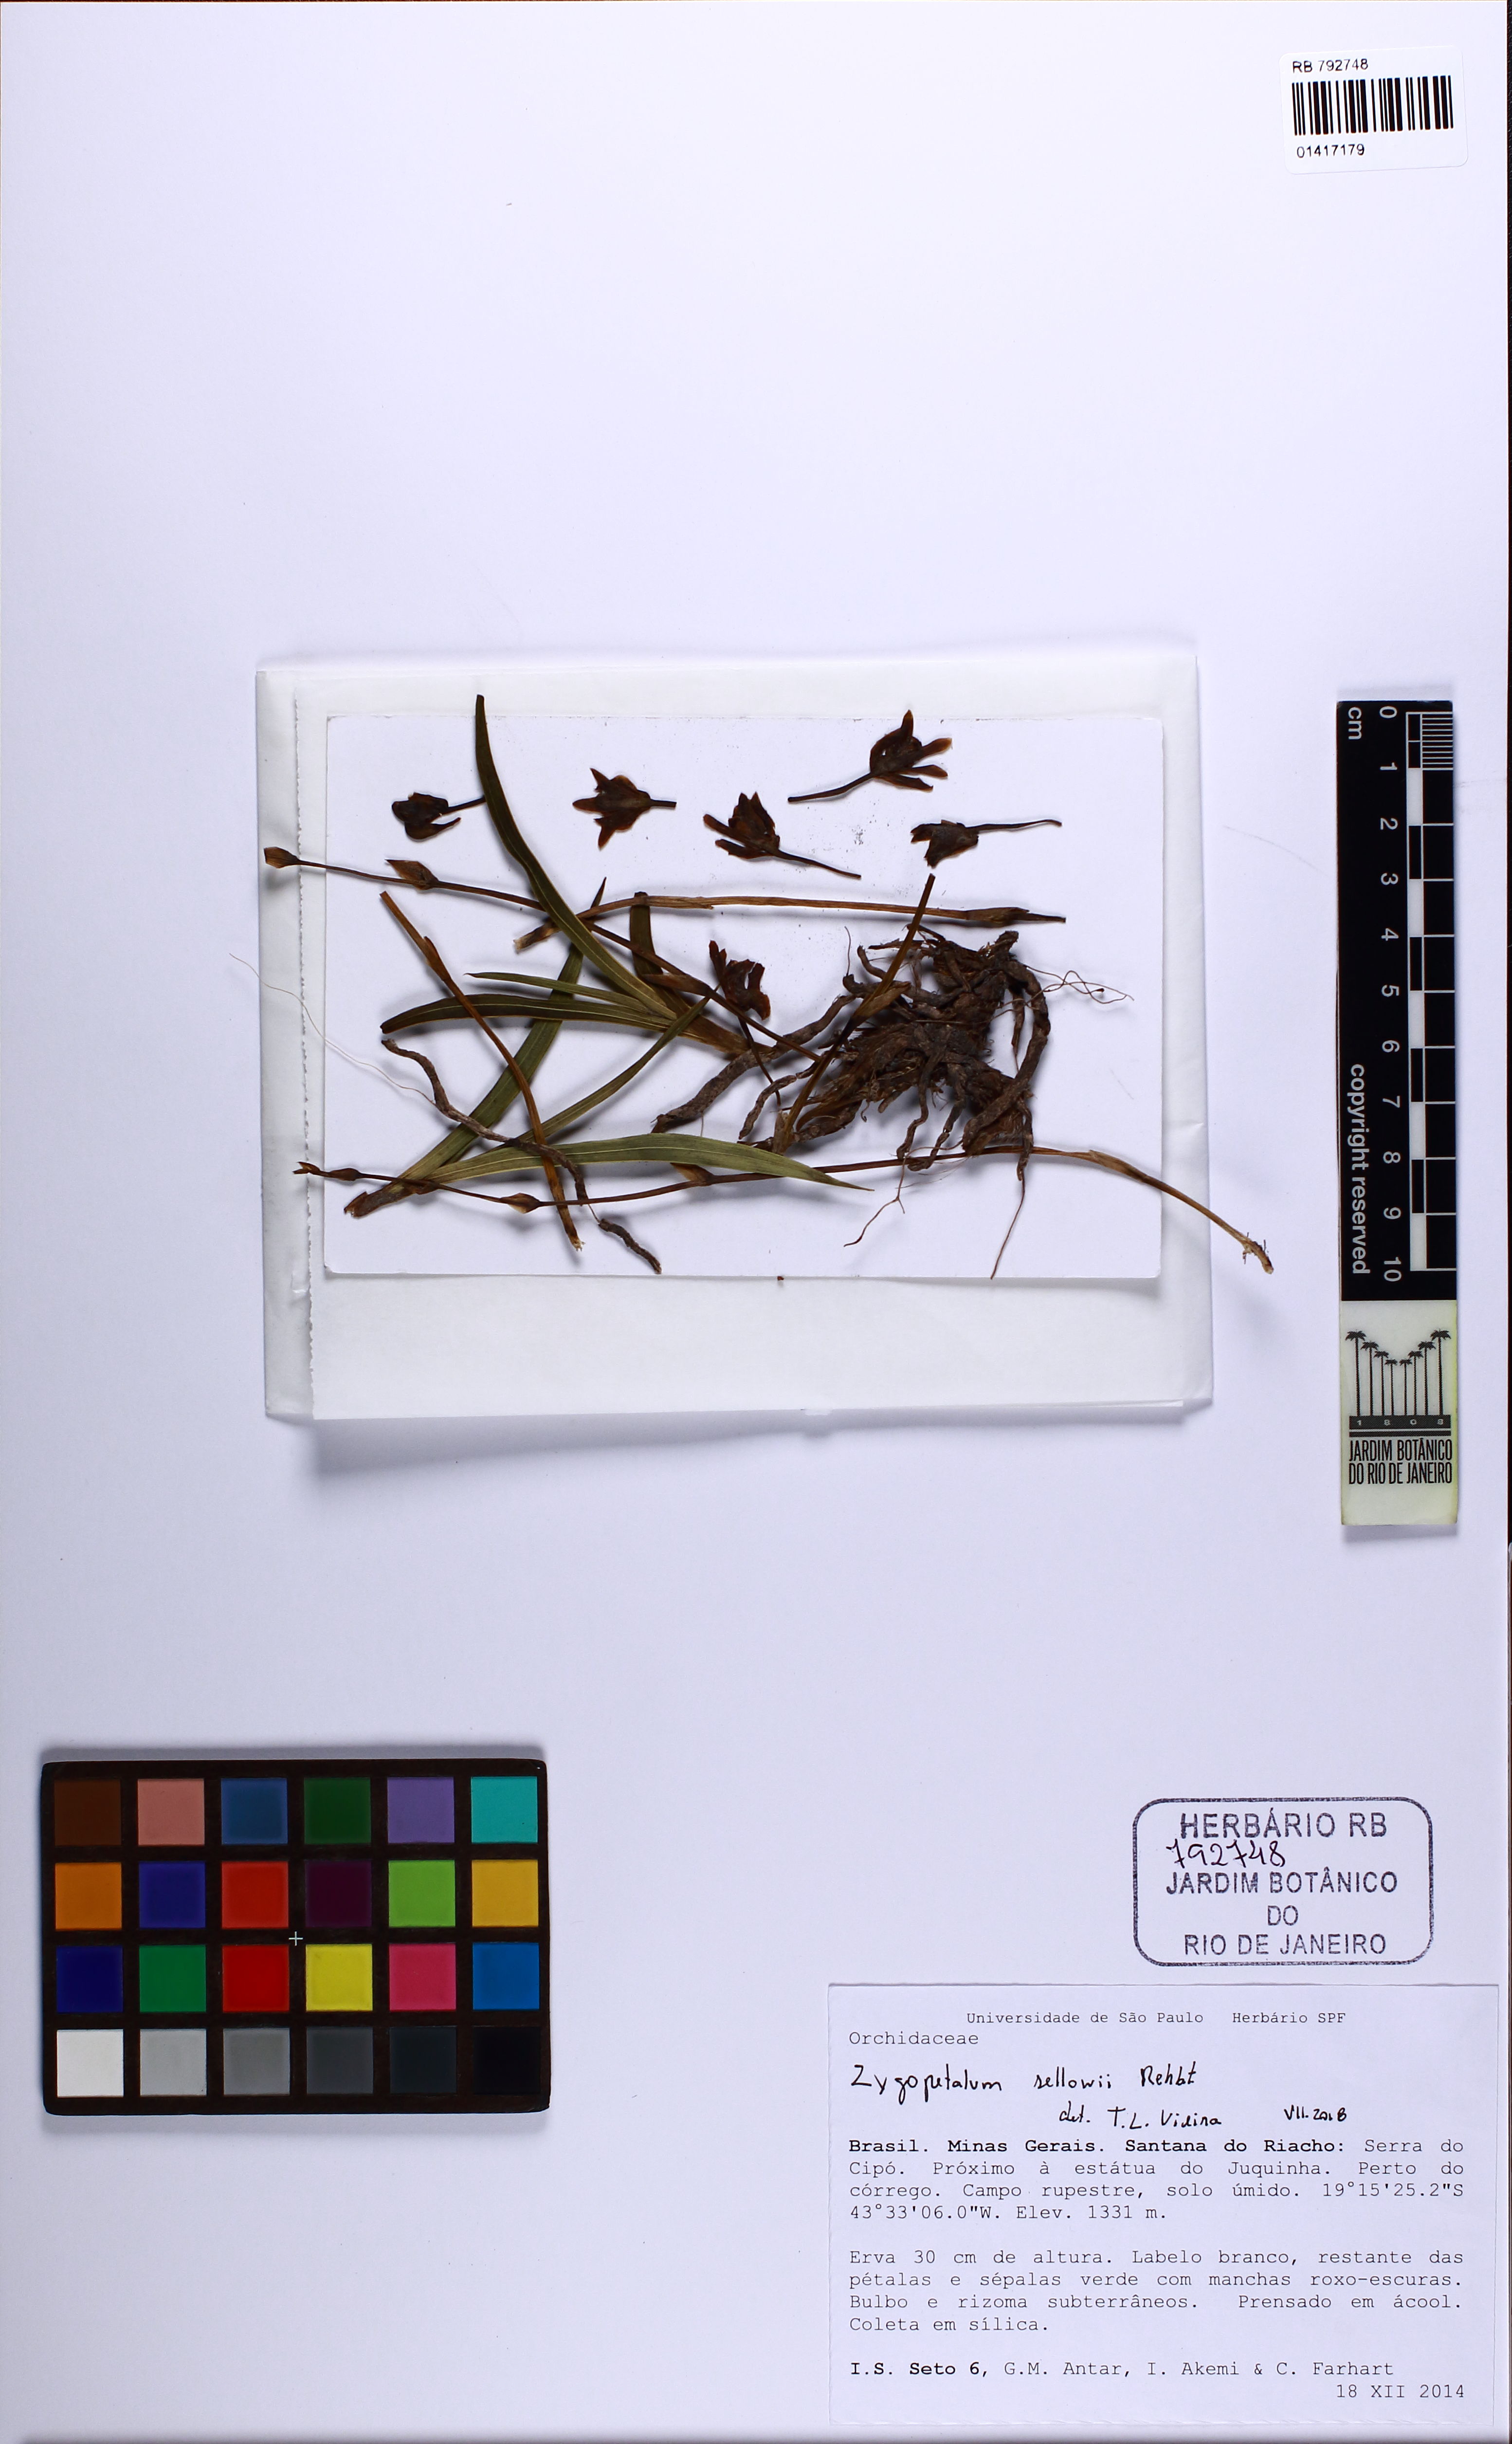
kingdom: Plantae
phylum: Tracheophyta
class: Liliopsida
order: Asparagales
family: Orchidaceae
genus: Zygopetalum
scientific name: Zygopetalum sellowii
